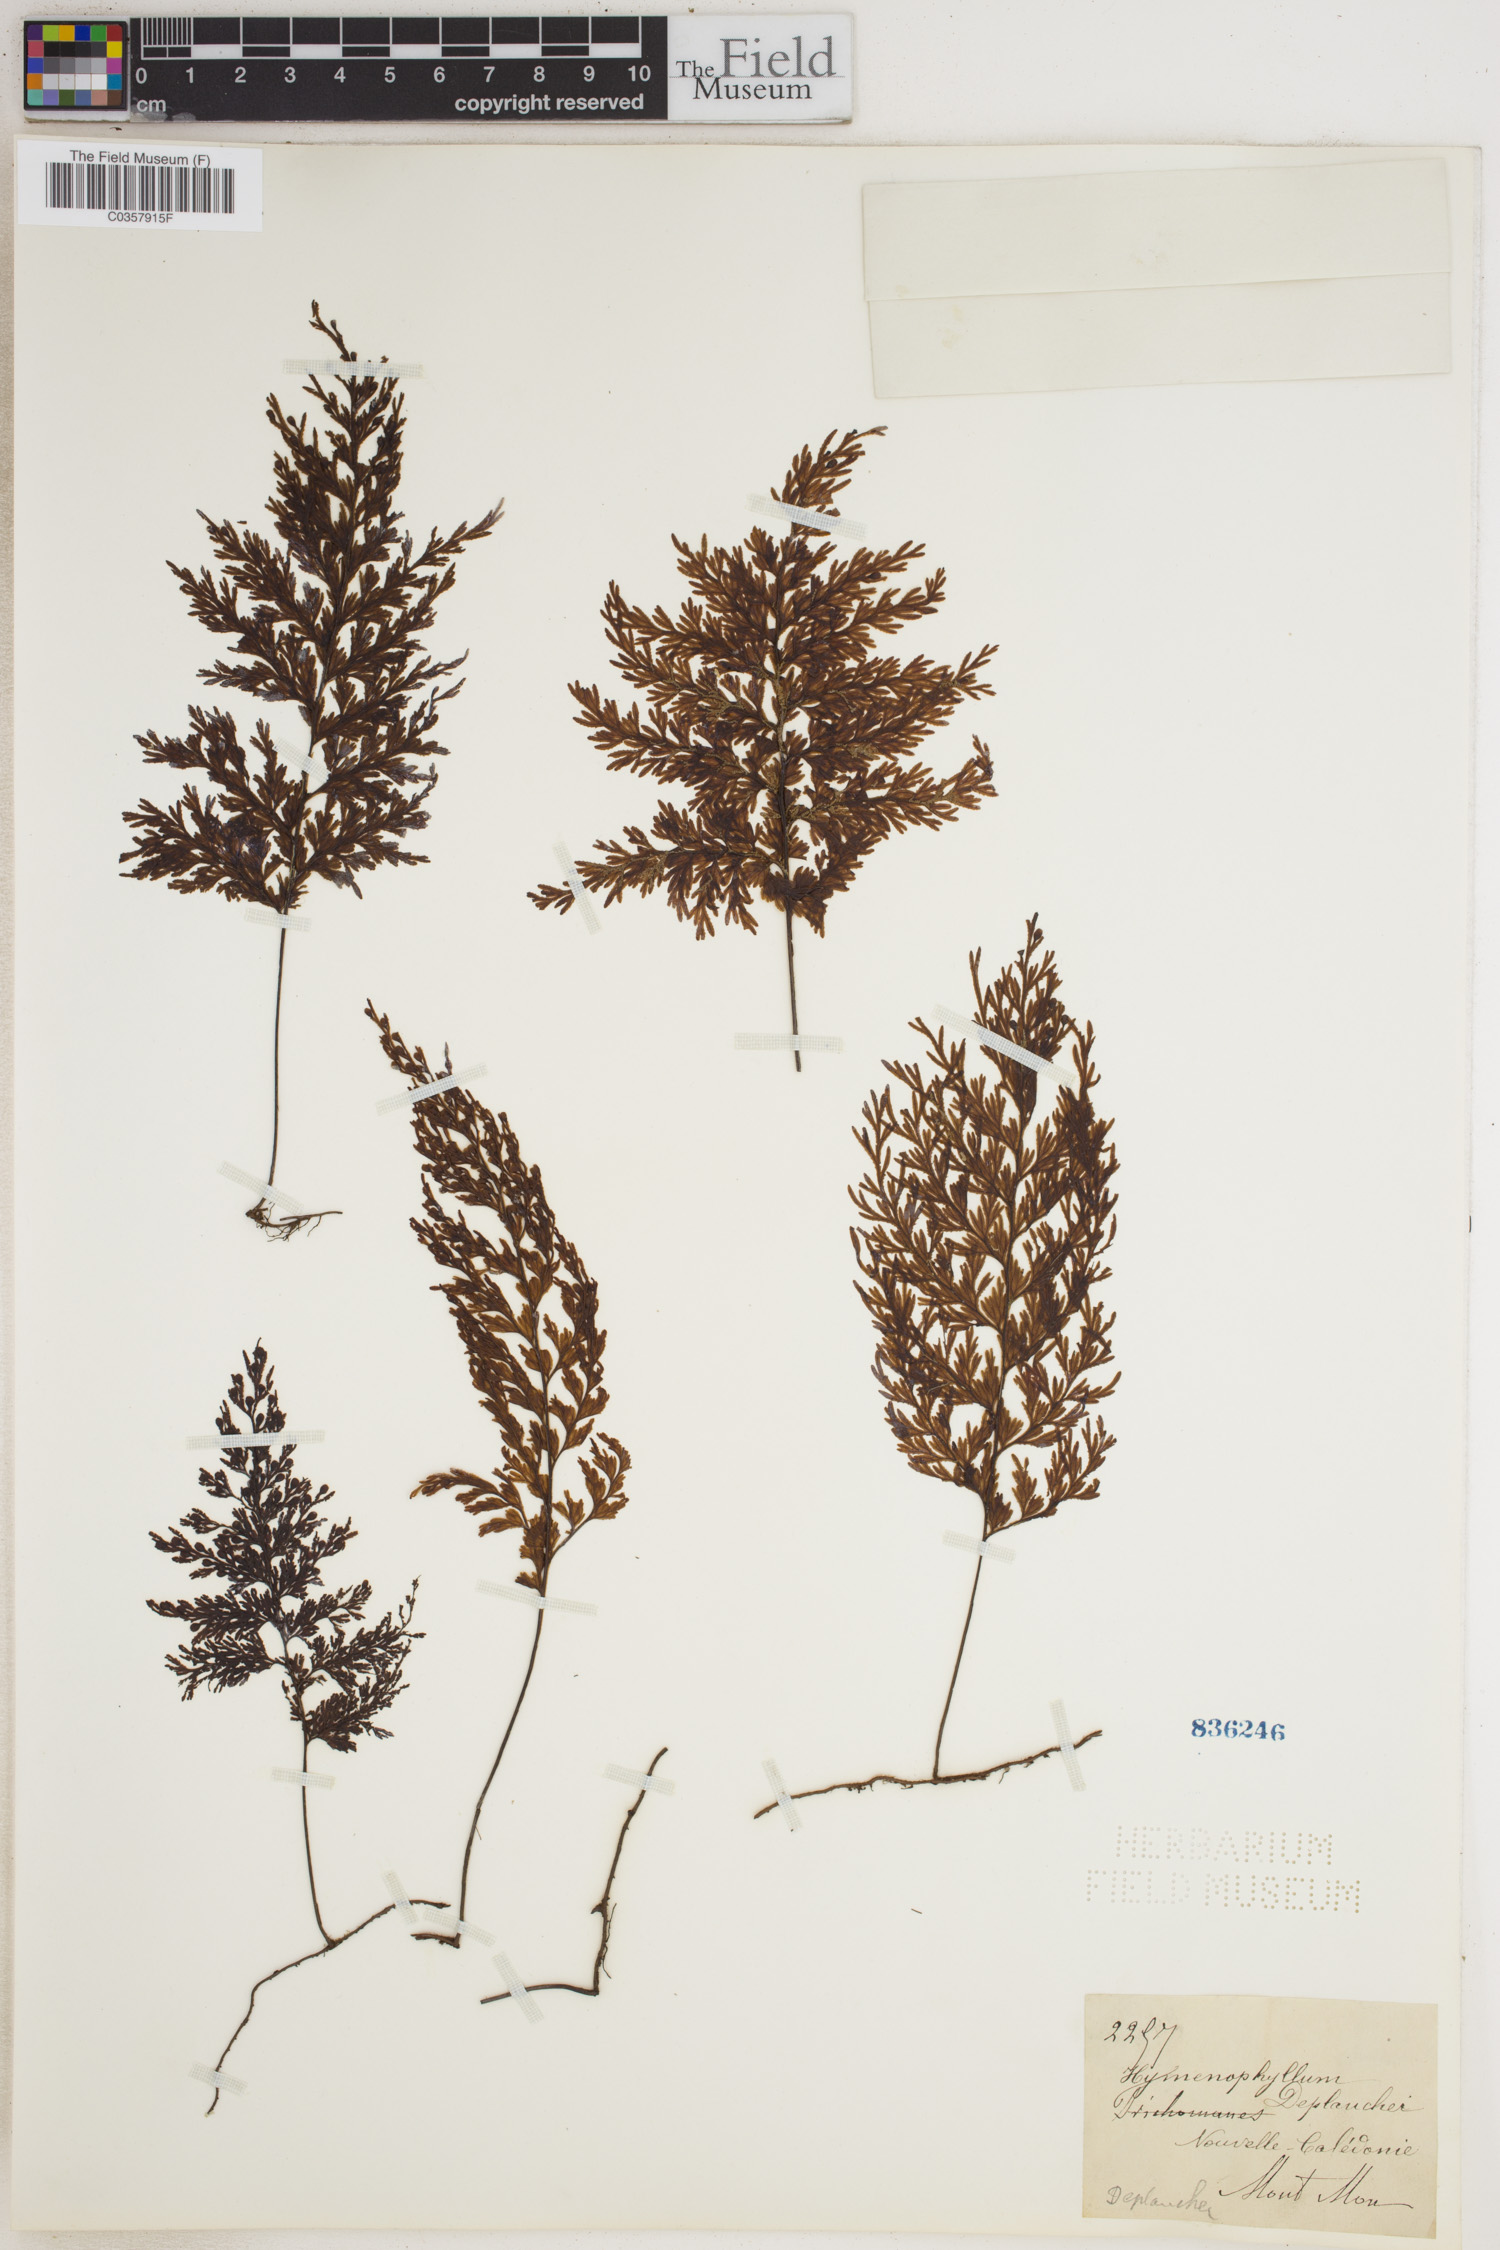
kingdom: Plantae
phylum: Tracheophyta
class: Polypodiopsida
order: Hymenophyllales
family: Hymenophyllaceae
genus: Hymenophyllum
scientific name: Hymenophyllum deplanchei
